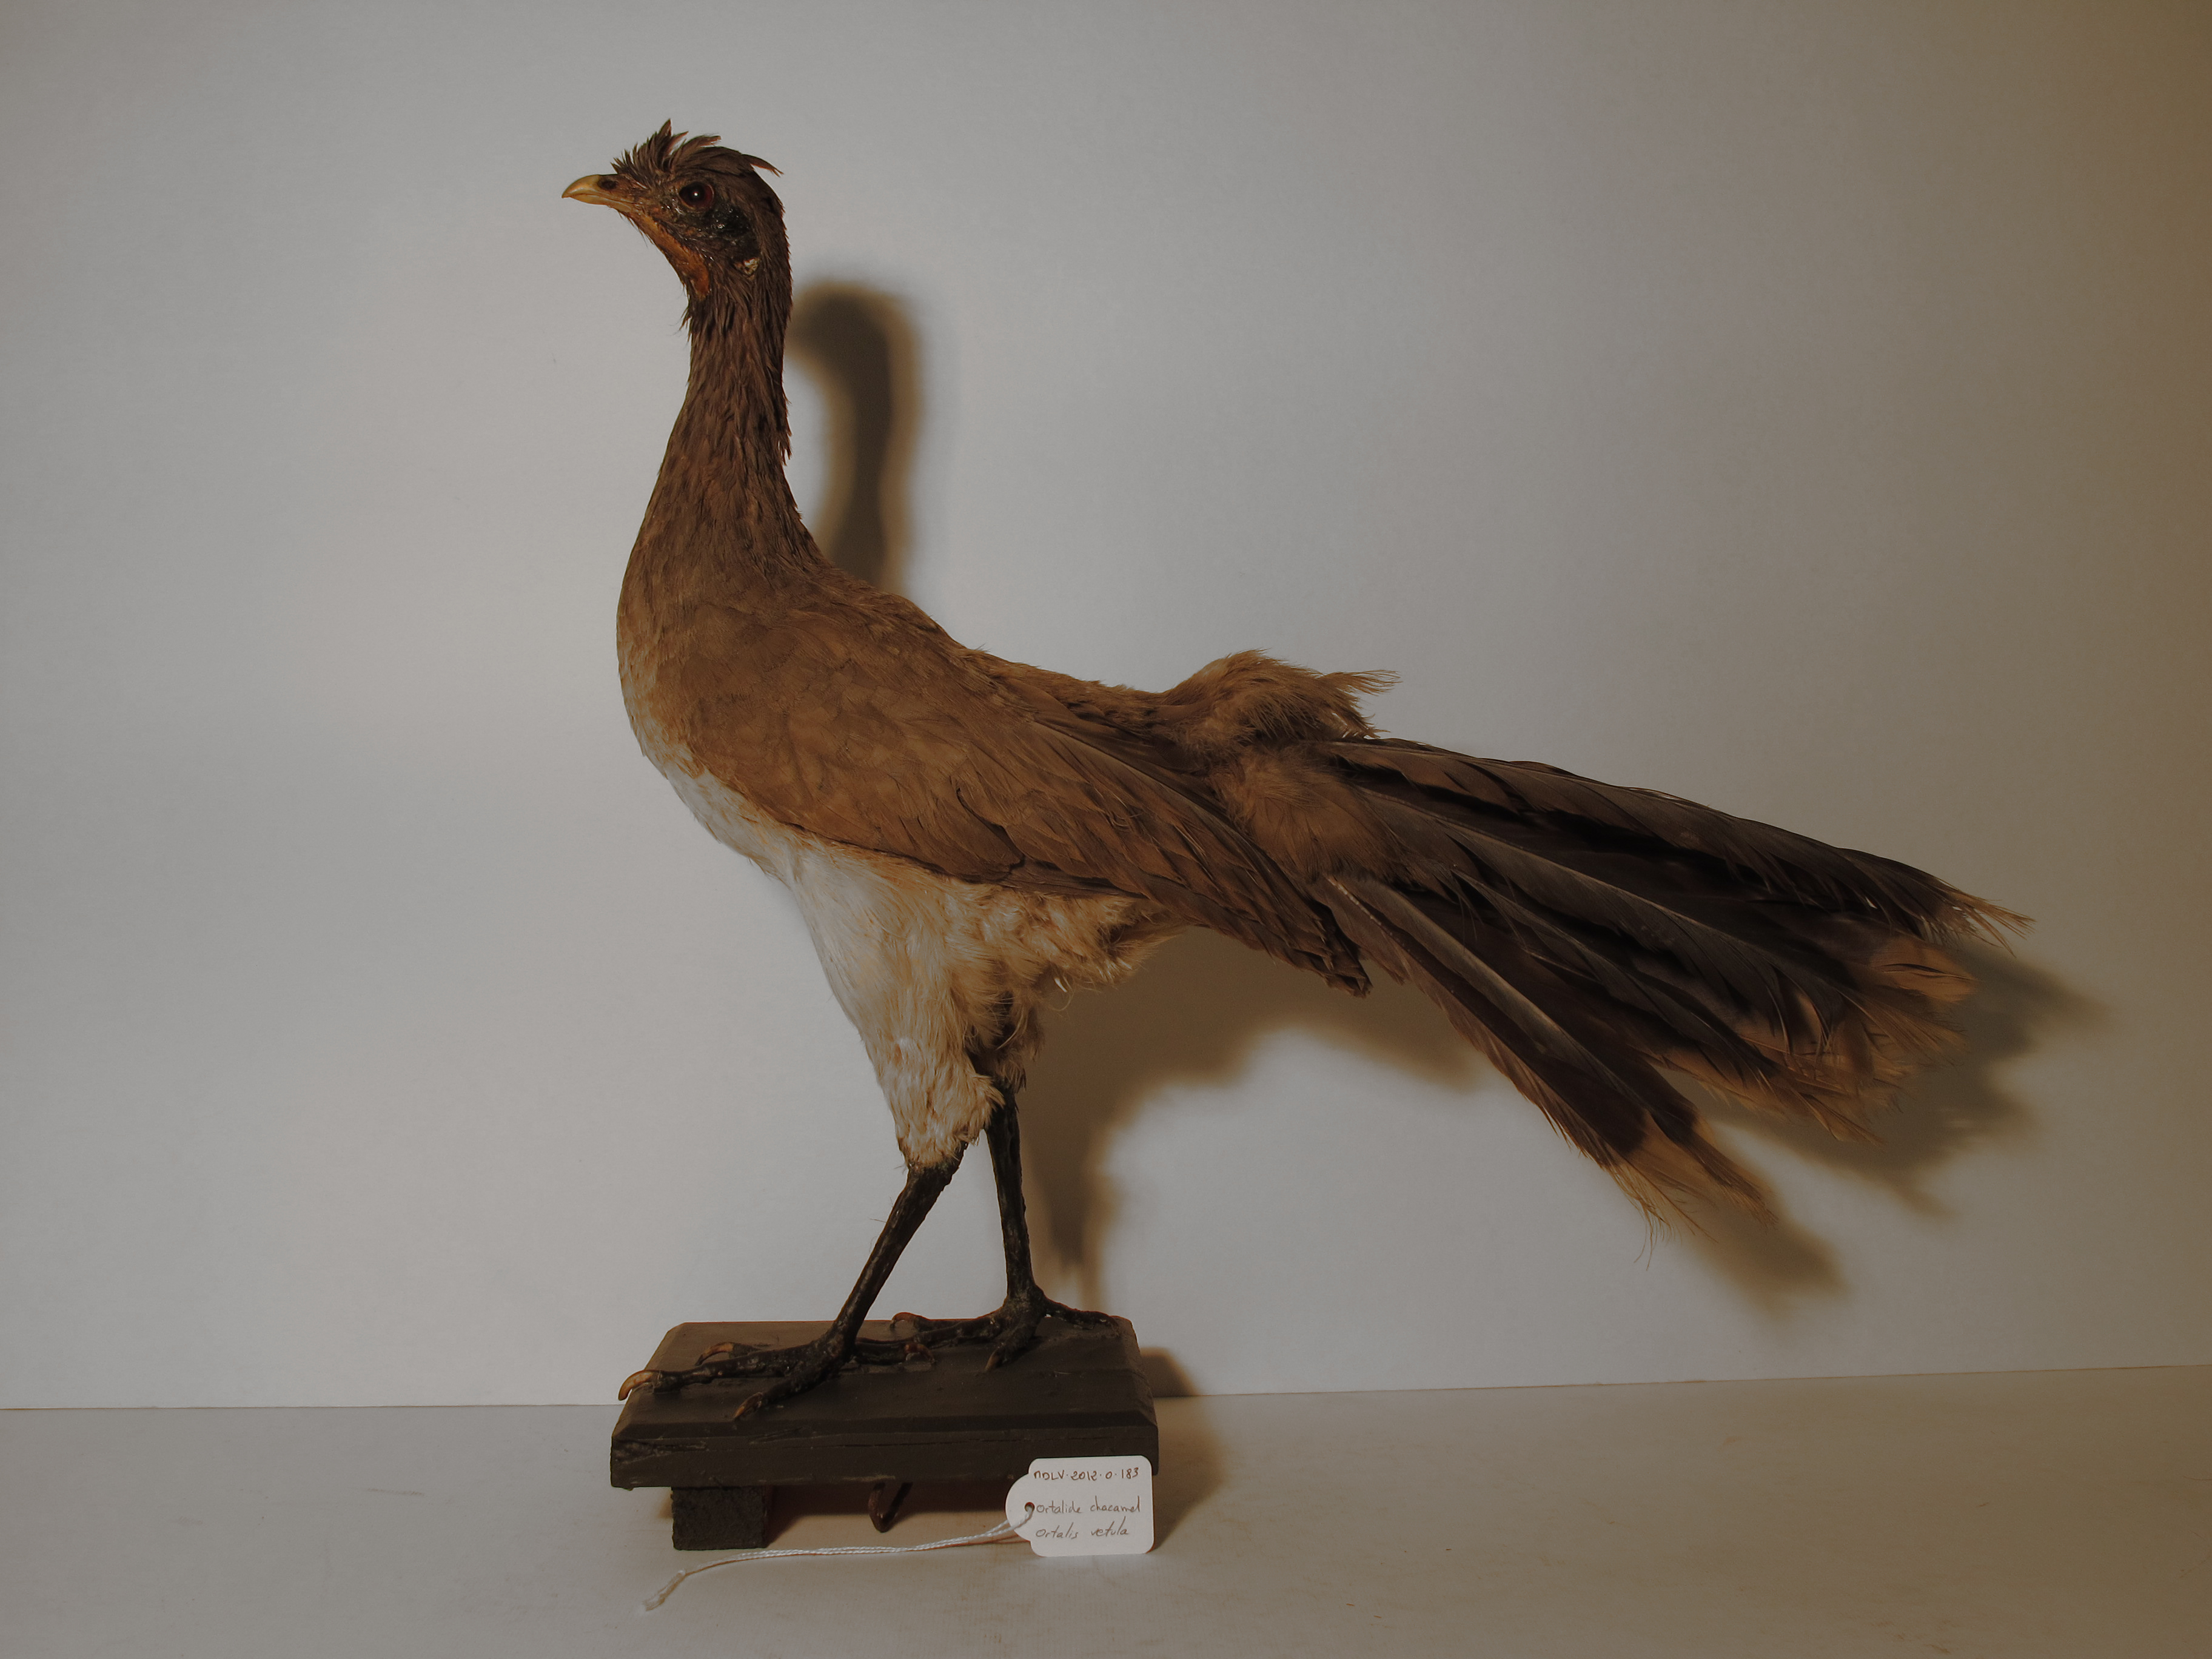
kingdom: Animalia
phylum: Chordata
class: Aves
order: Galliformes
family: Cracidae
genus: Ortalis
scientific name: Ortalis vetula
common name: Plain Chachalaca
